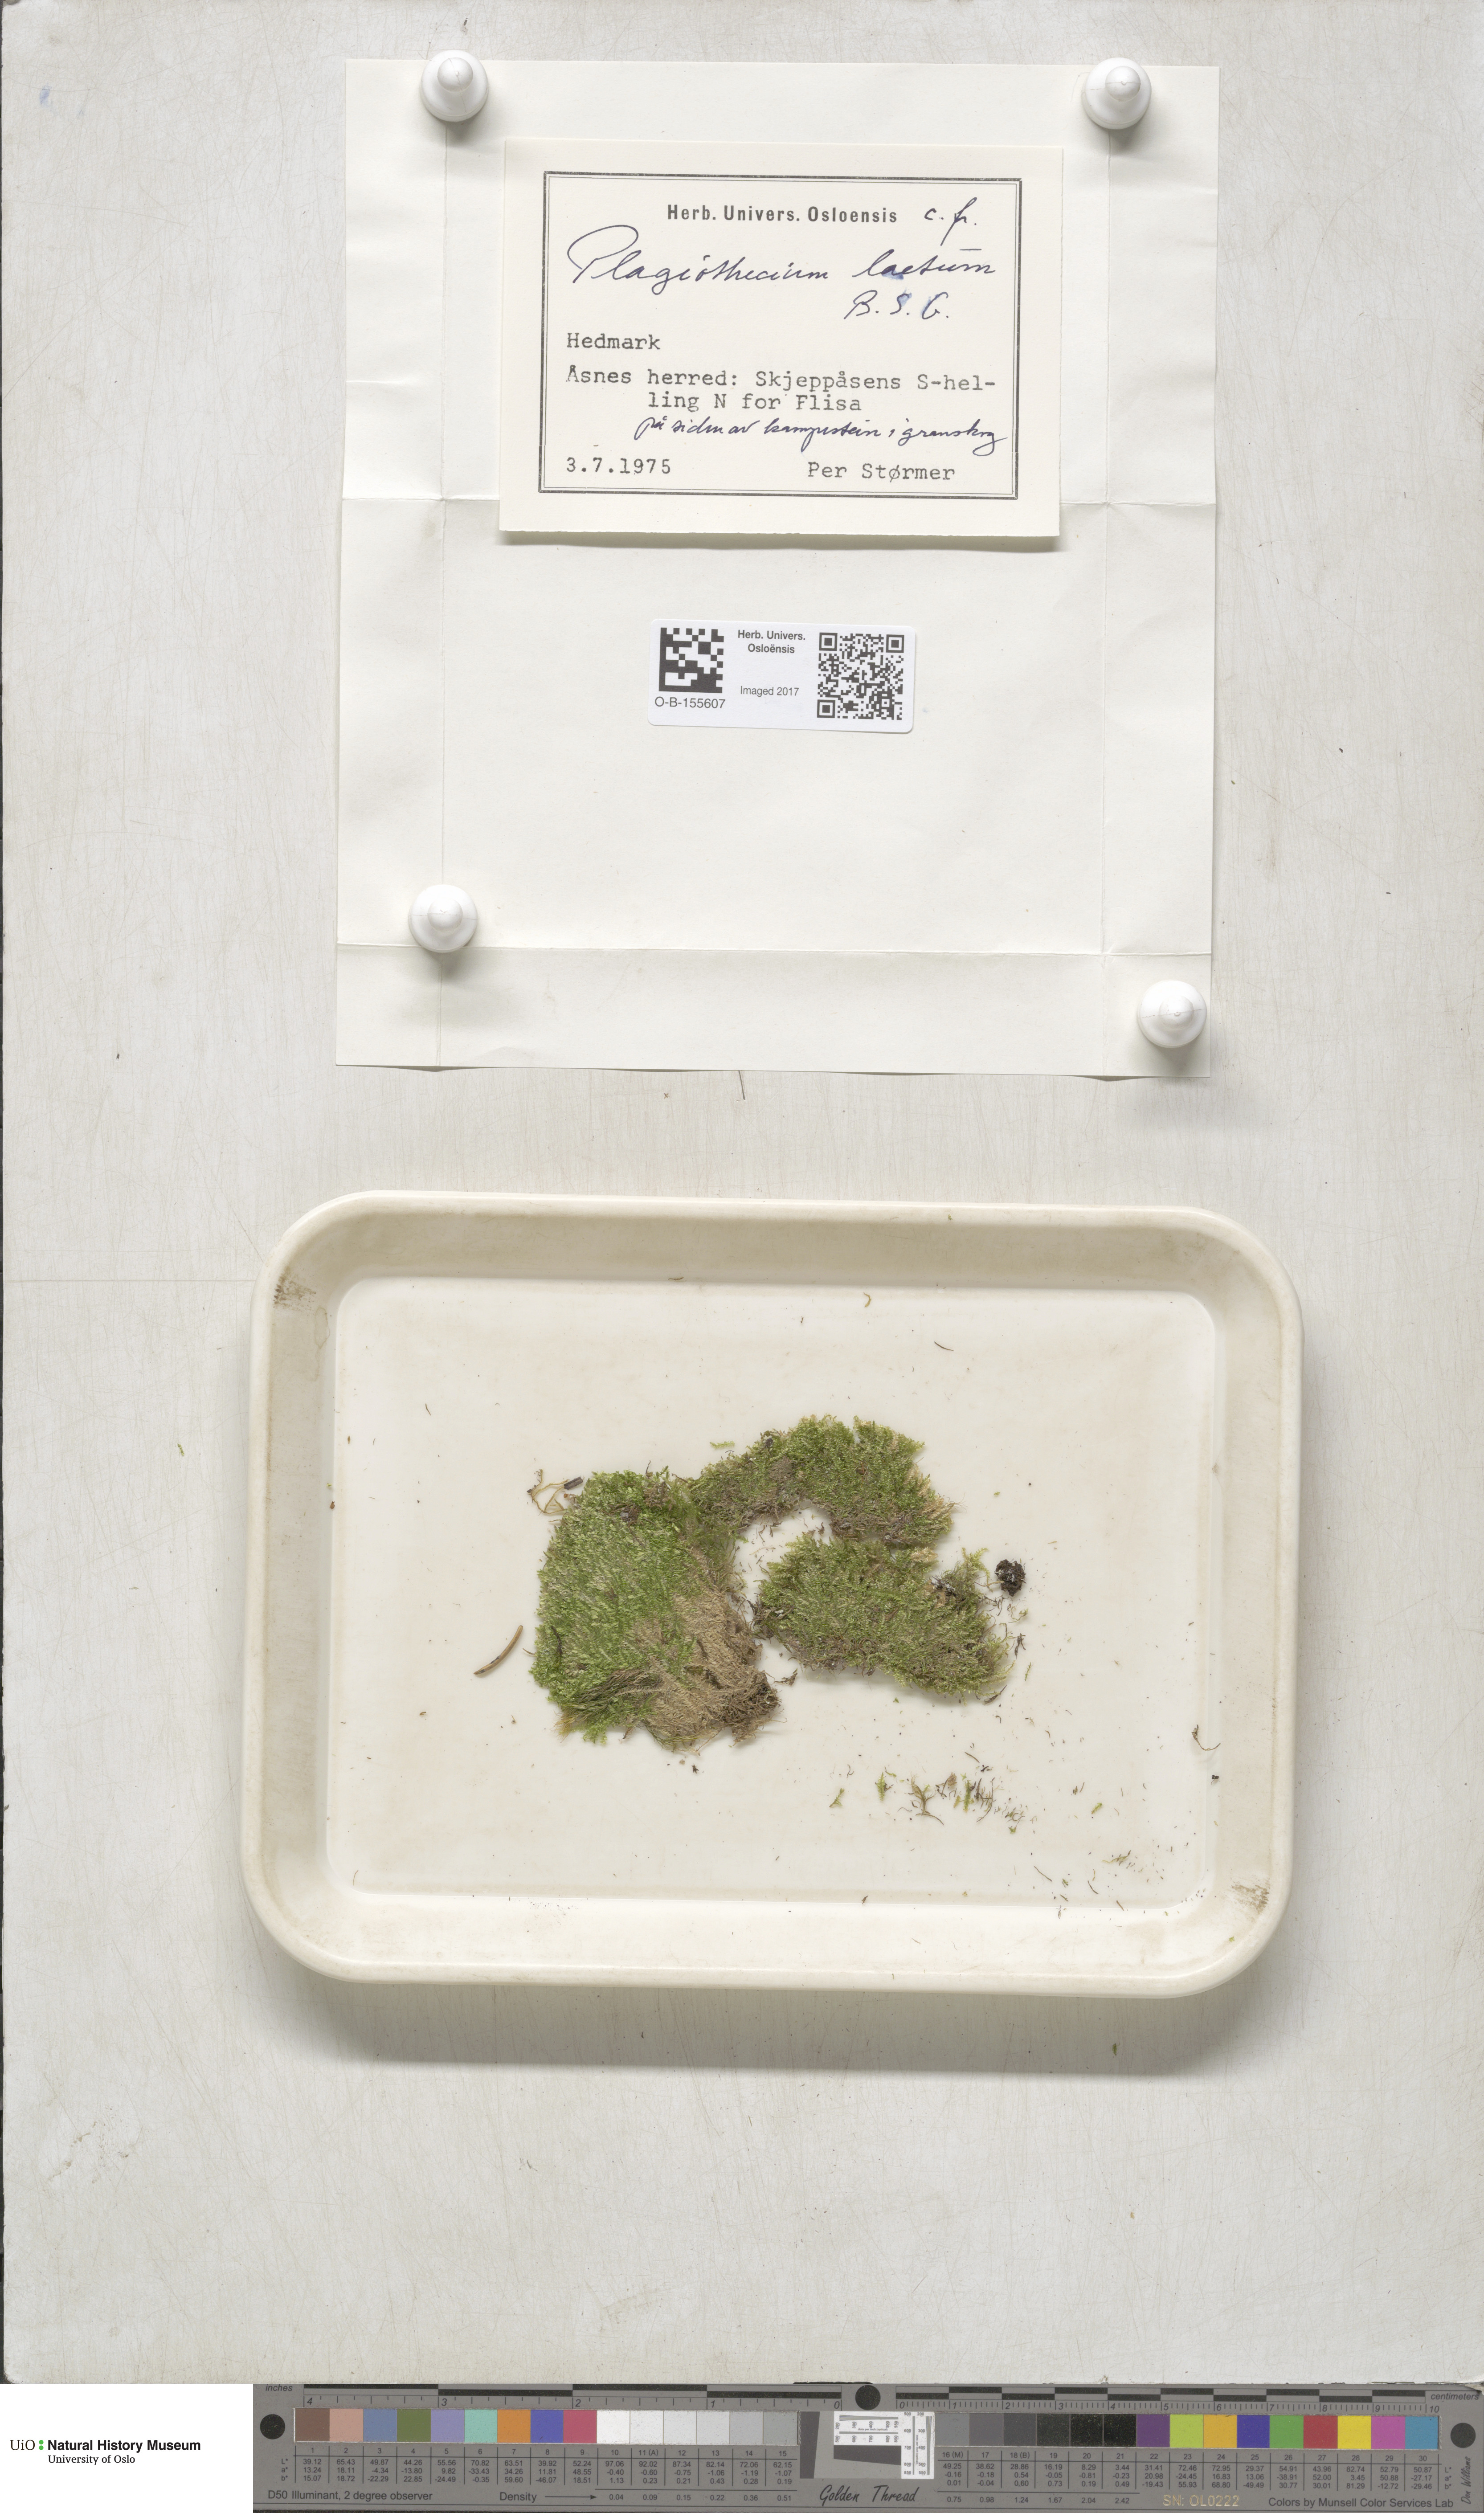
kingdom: Plantae
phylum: Bryophyta
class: Bryopsida
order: Hypnales
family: Plagiotheciaceae
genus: Plagiothecium
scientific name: Plagiothecium laetum
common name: Bright silk moss
